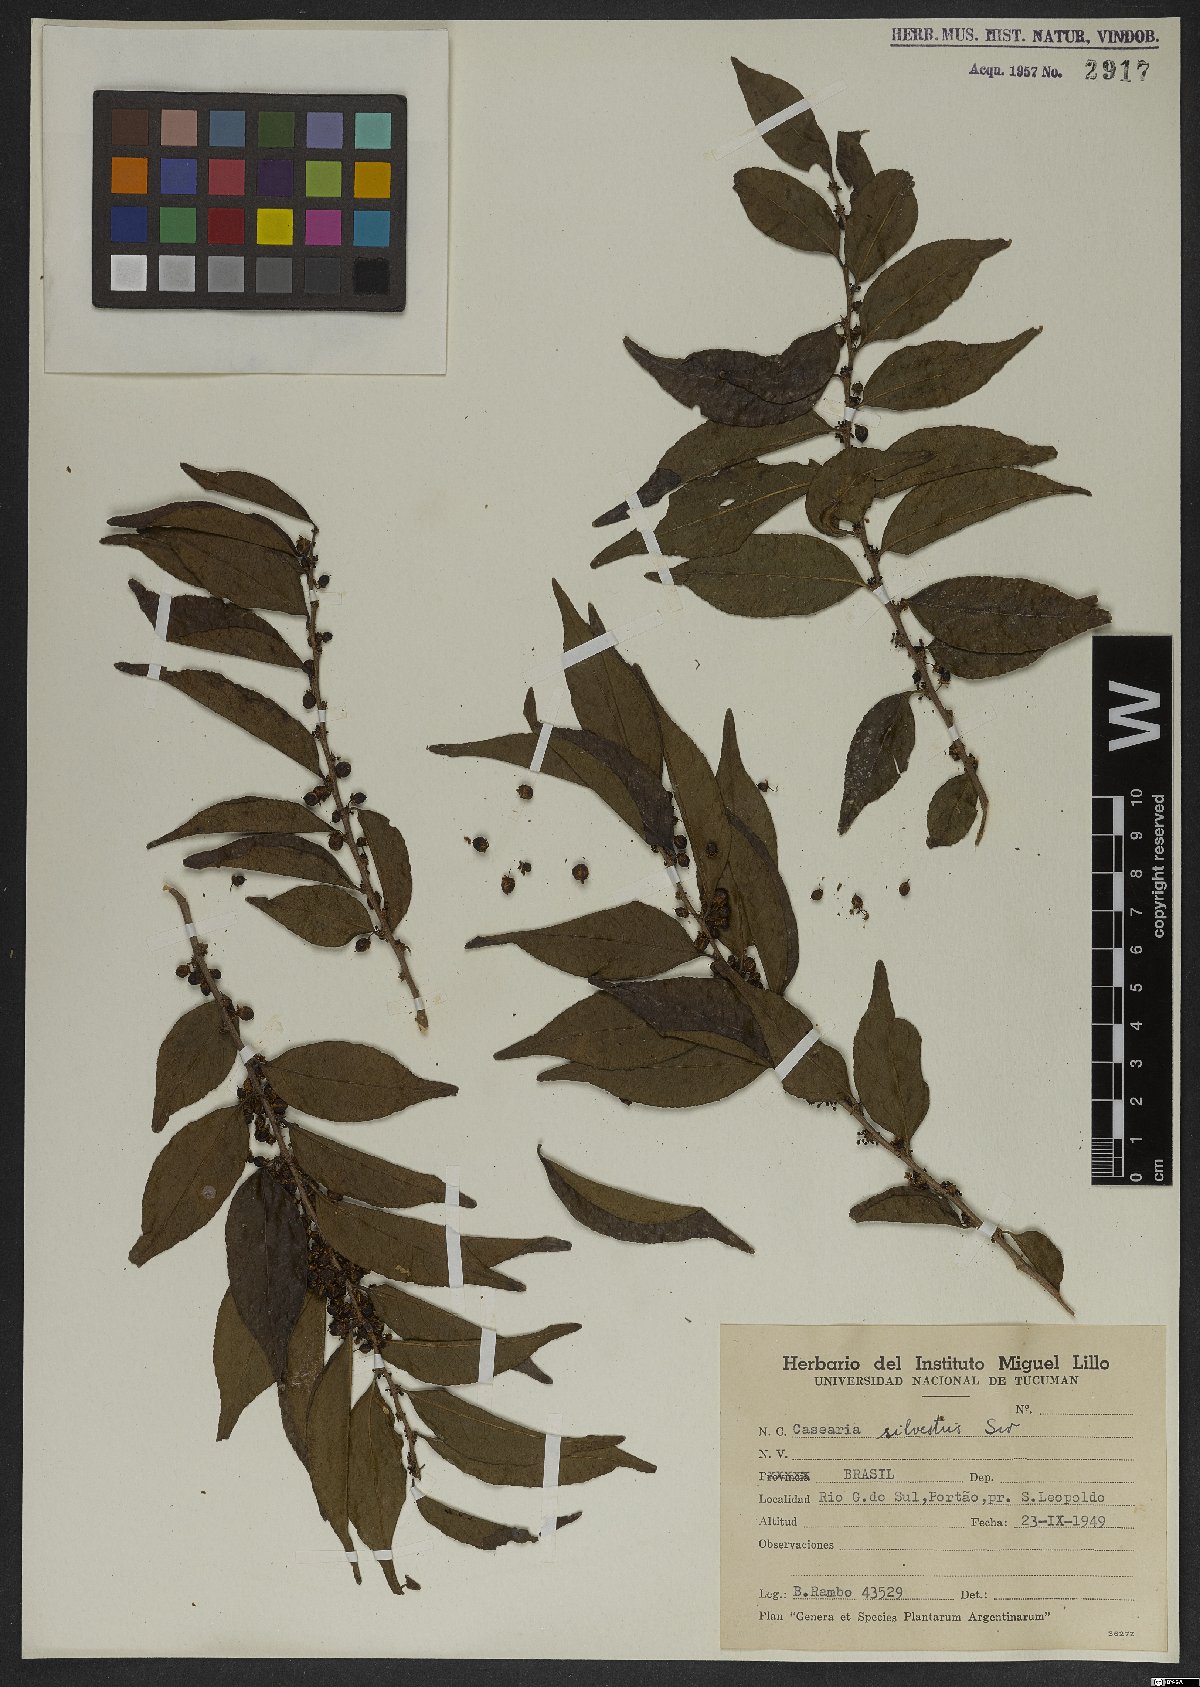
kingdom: Plantae
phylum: Tracheophyta
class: Magnoliopsida
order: Malpighiales
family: Salicaceae
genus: Casearia
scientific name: Casearia sylvestris
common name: Wild sage
